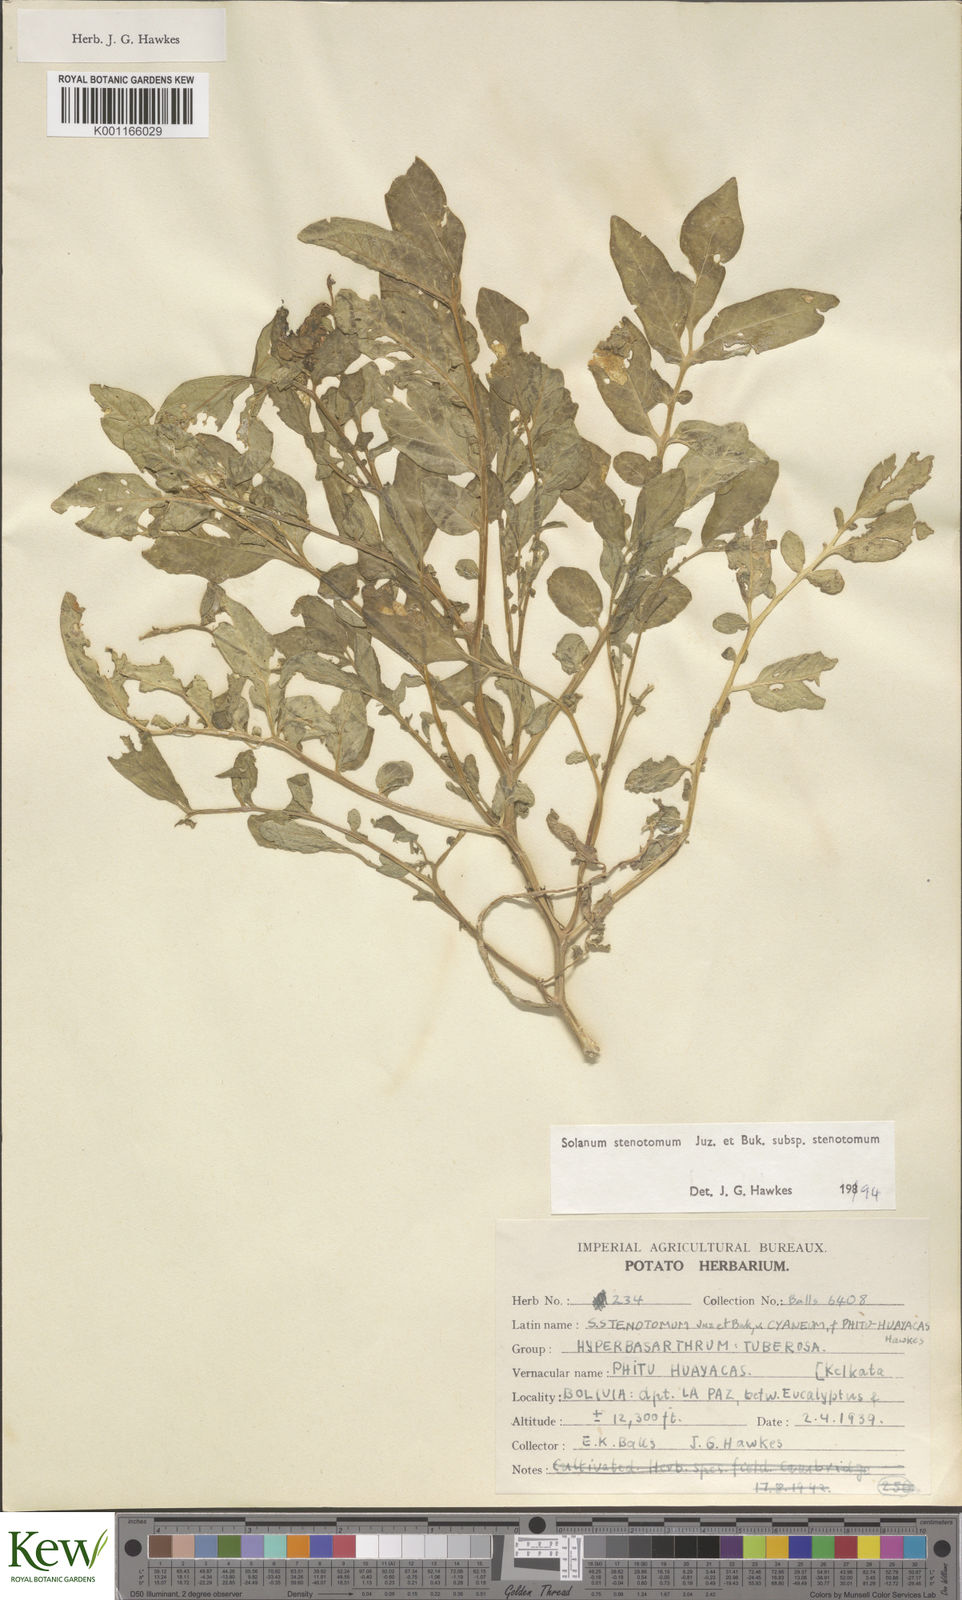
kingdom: Plantae
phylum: Tracheophyta
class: Magnoliopsida
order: Solanales
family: Solanaceae
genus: Solanum
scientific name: Solanum tuberosum
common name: Potato
